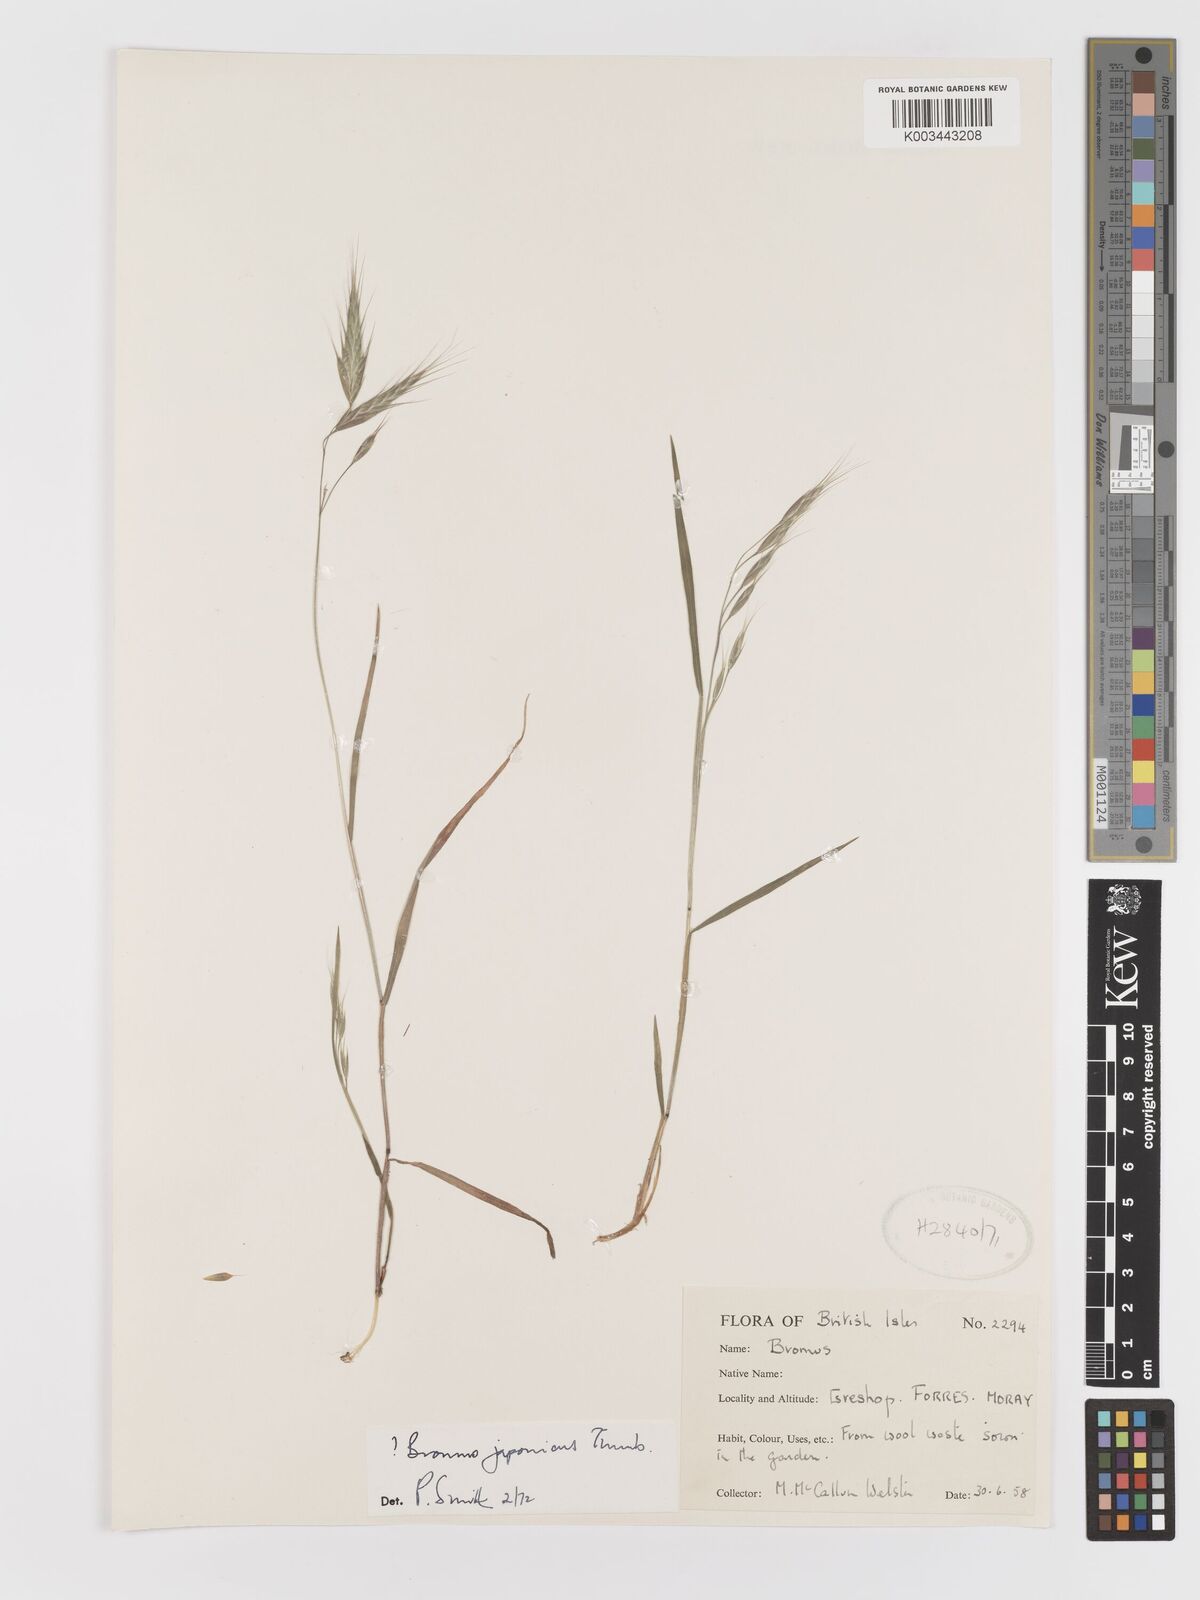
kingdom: Plantae
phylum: Tracheophyta
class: Liliopsida
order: Poales
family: Poaceae
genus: Bromus
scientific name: Bromus
